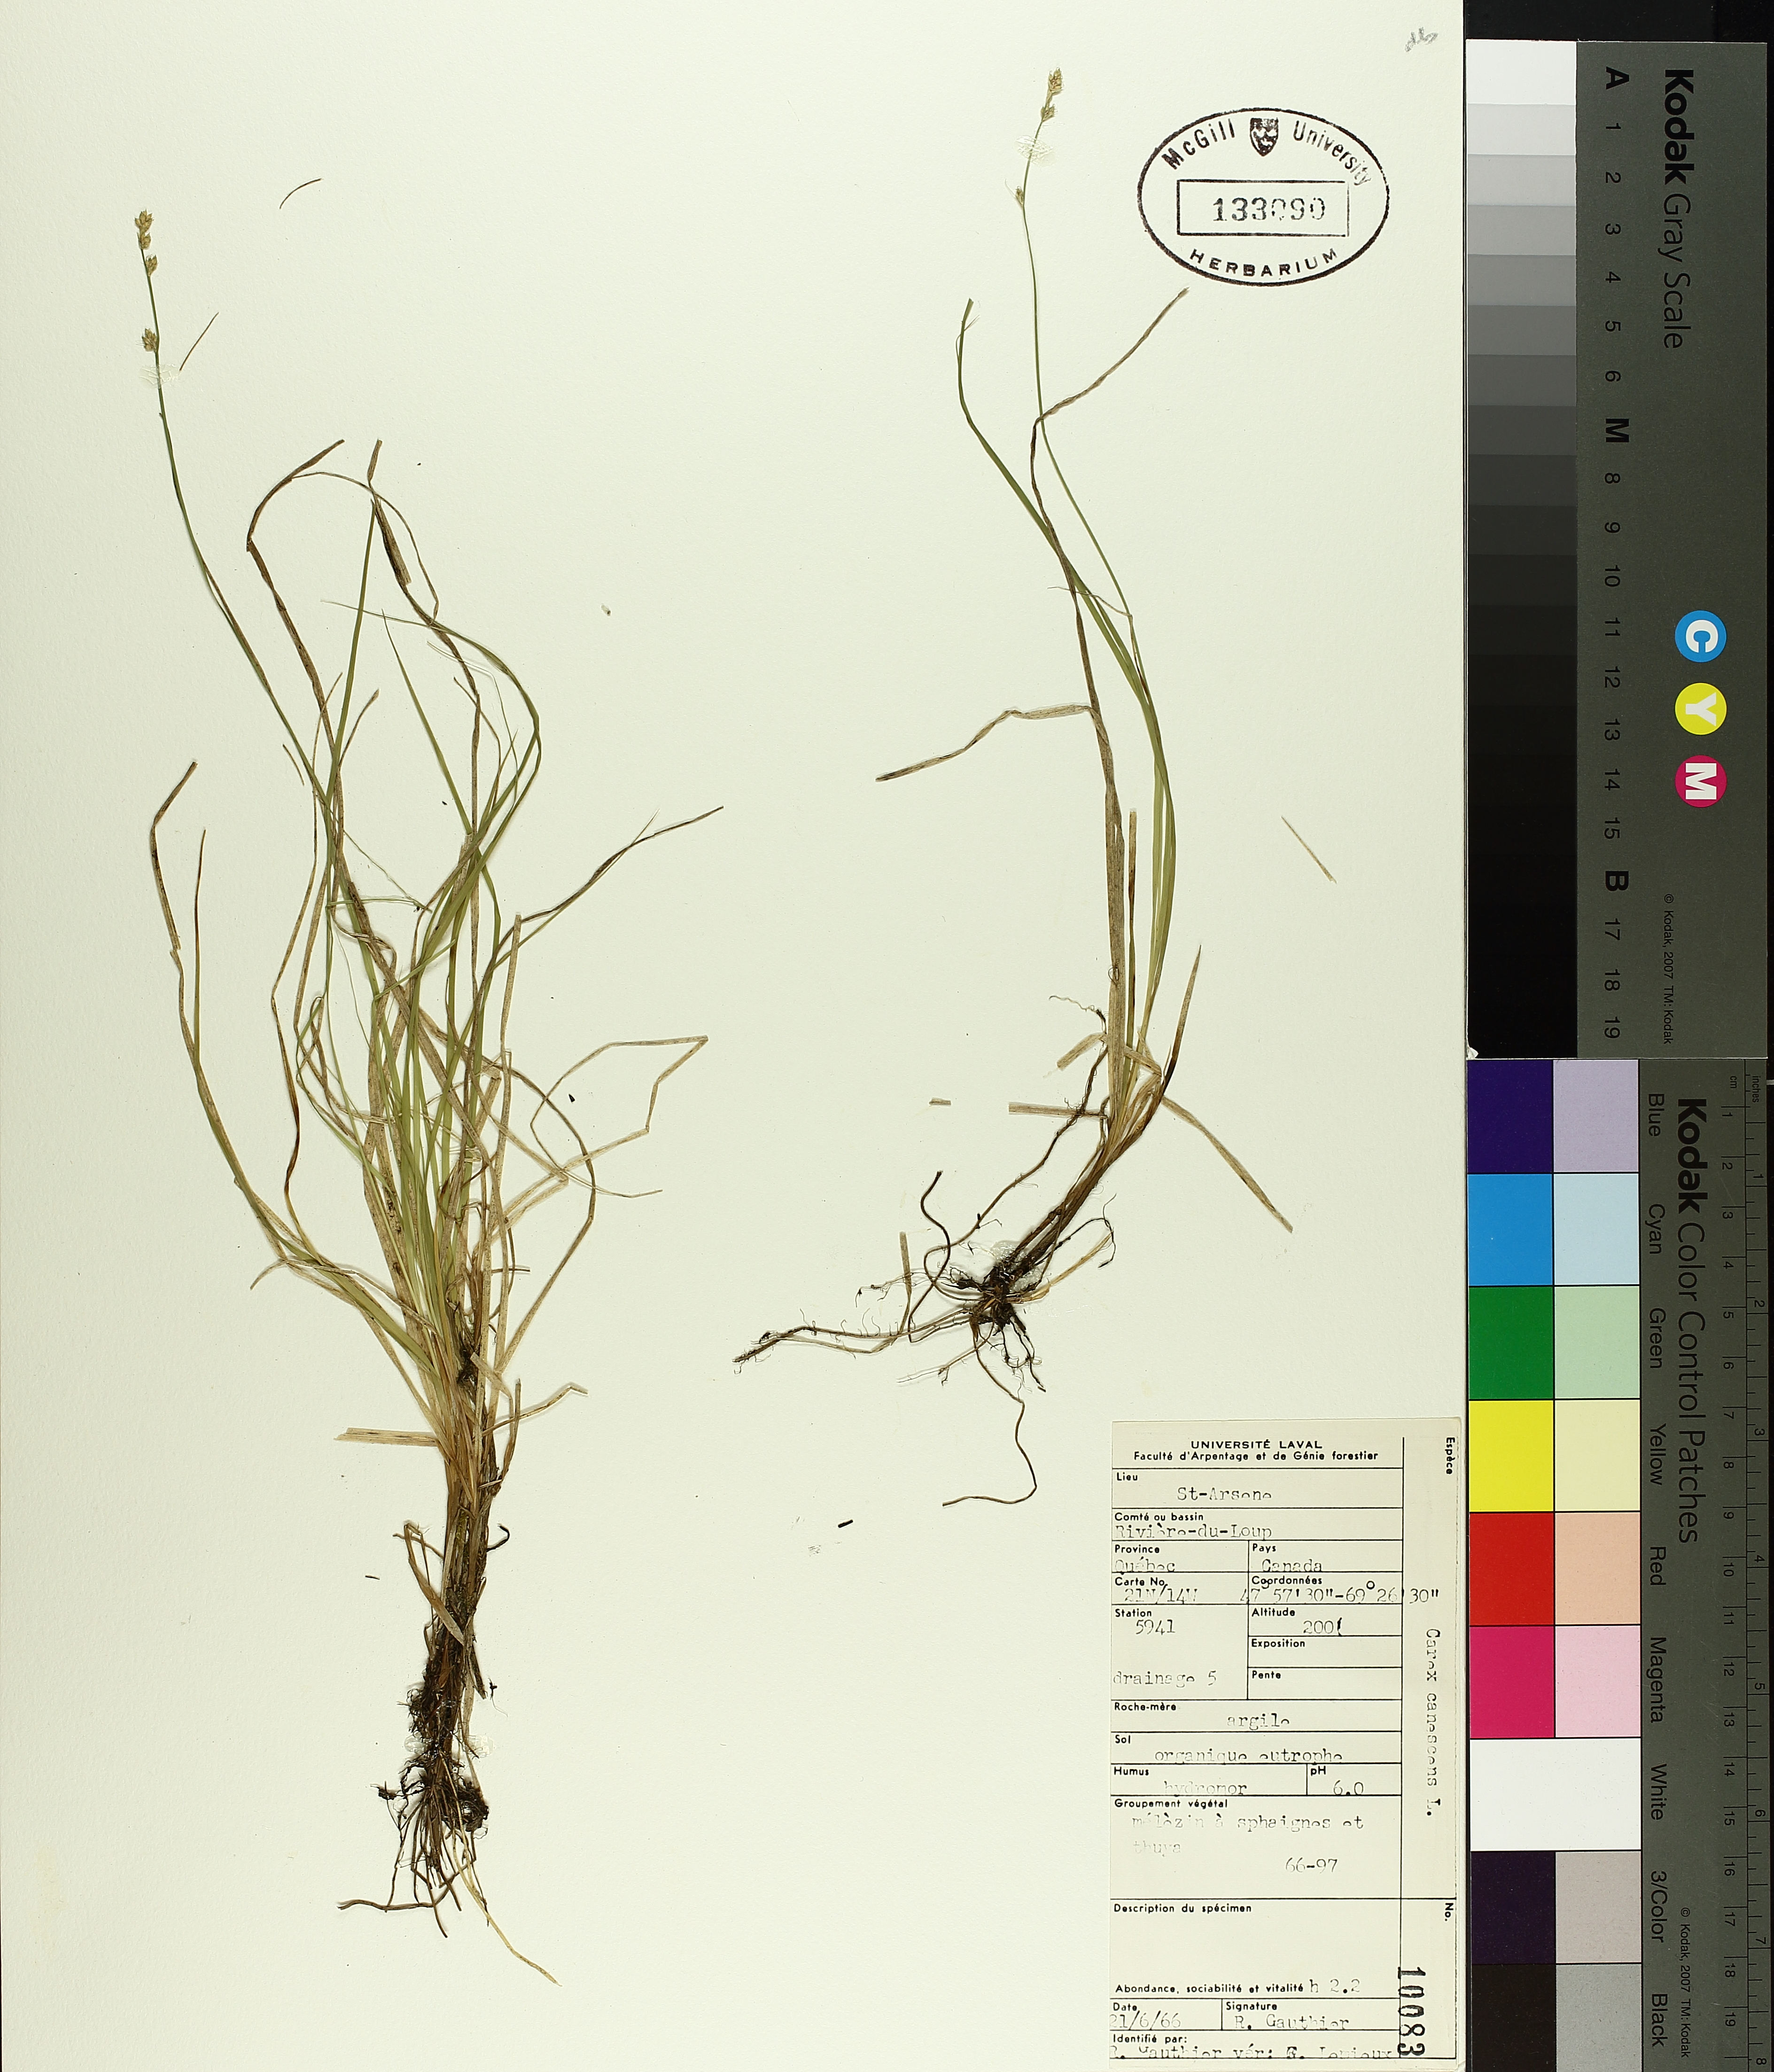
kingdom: Plantae
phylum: Tracheophyta
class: Liliopsida
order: Poales
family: Cyperaceae
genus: Carex
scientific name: Carex canescens
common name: White sedge
